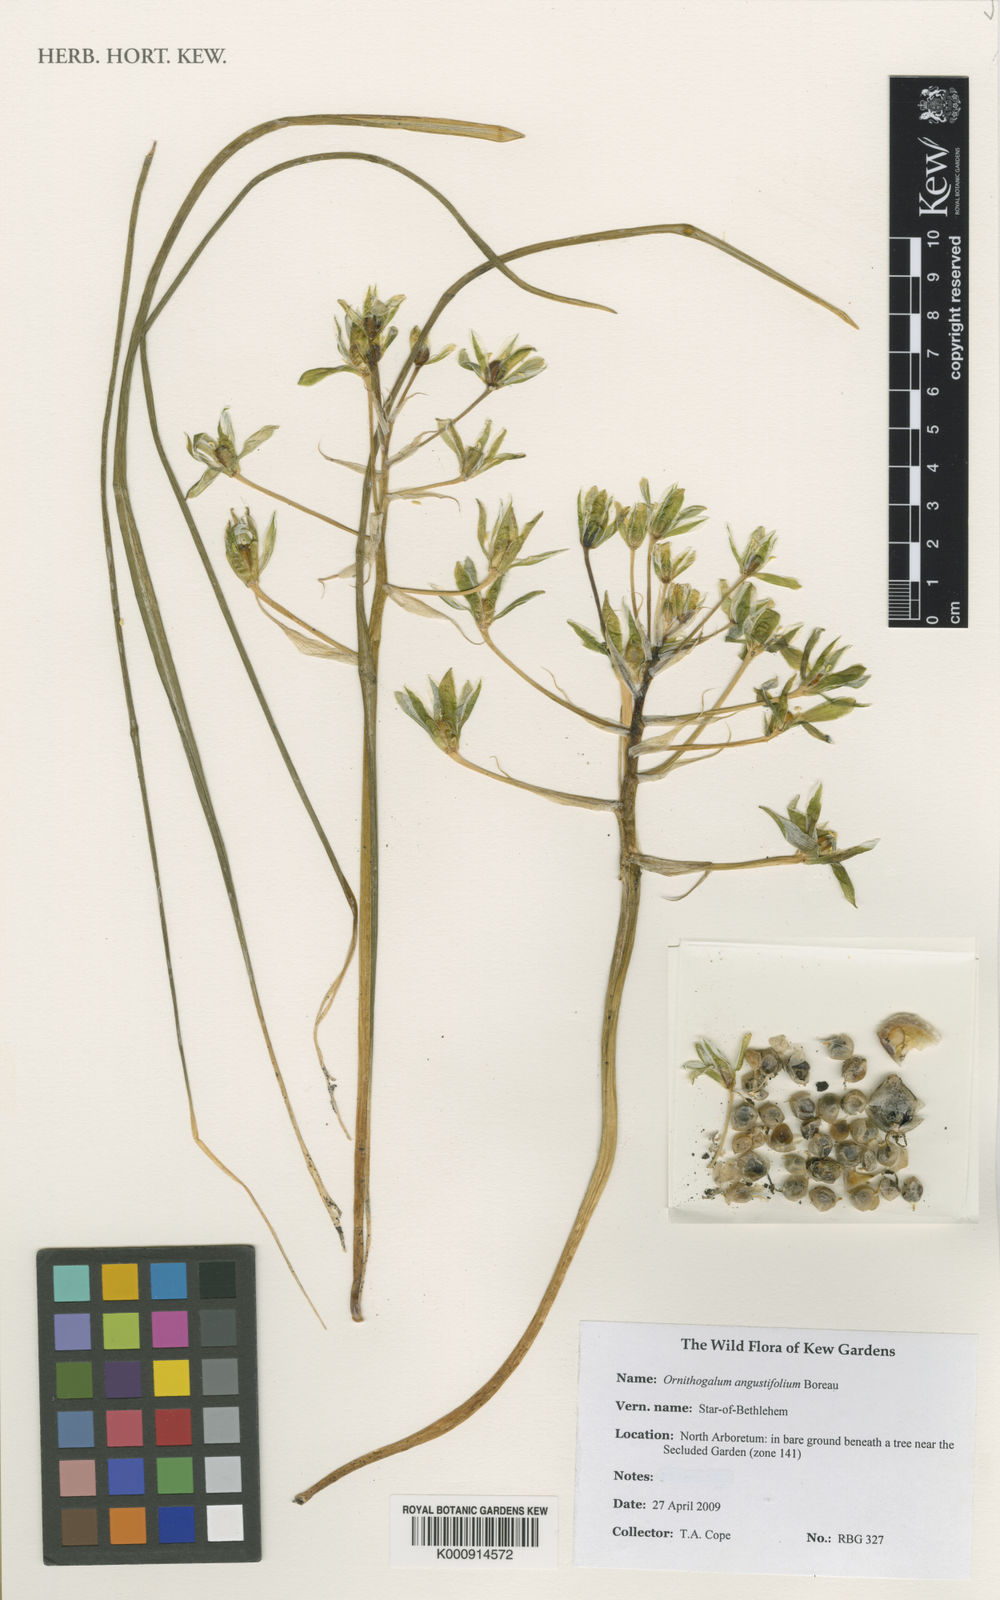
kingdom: Plantae
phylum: Tracheophyta
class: Liliopsida
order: Asparagales
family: Asparagaceae
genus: Ornithogalum
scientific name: Ornithogalum umbellatum
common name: Garden star-of-bethlehem
